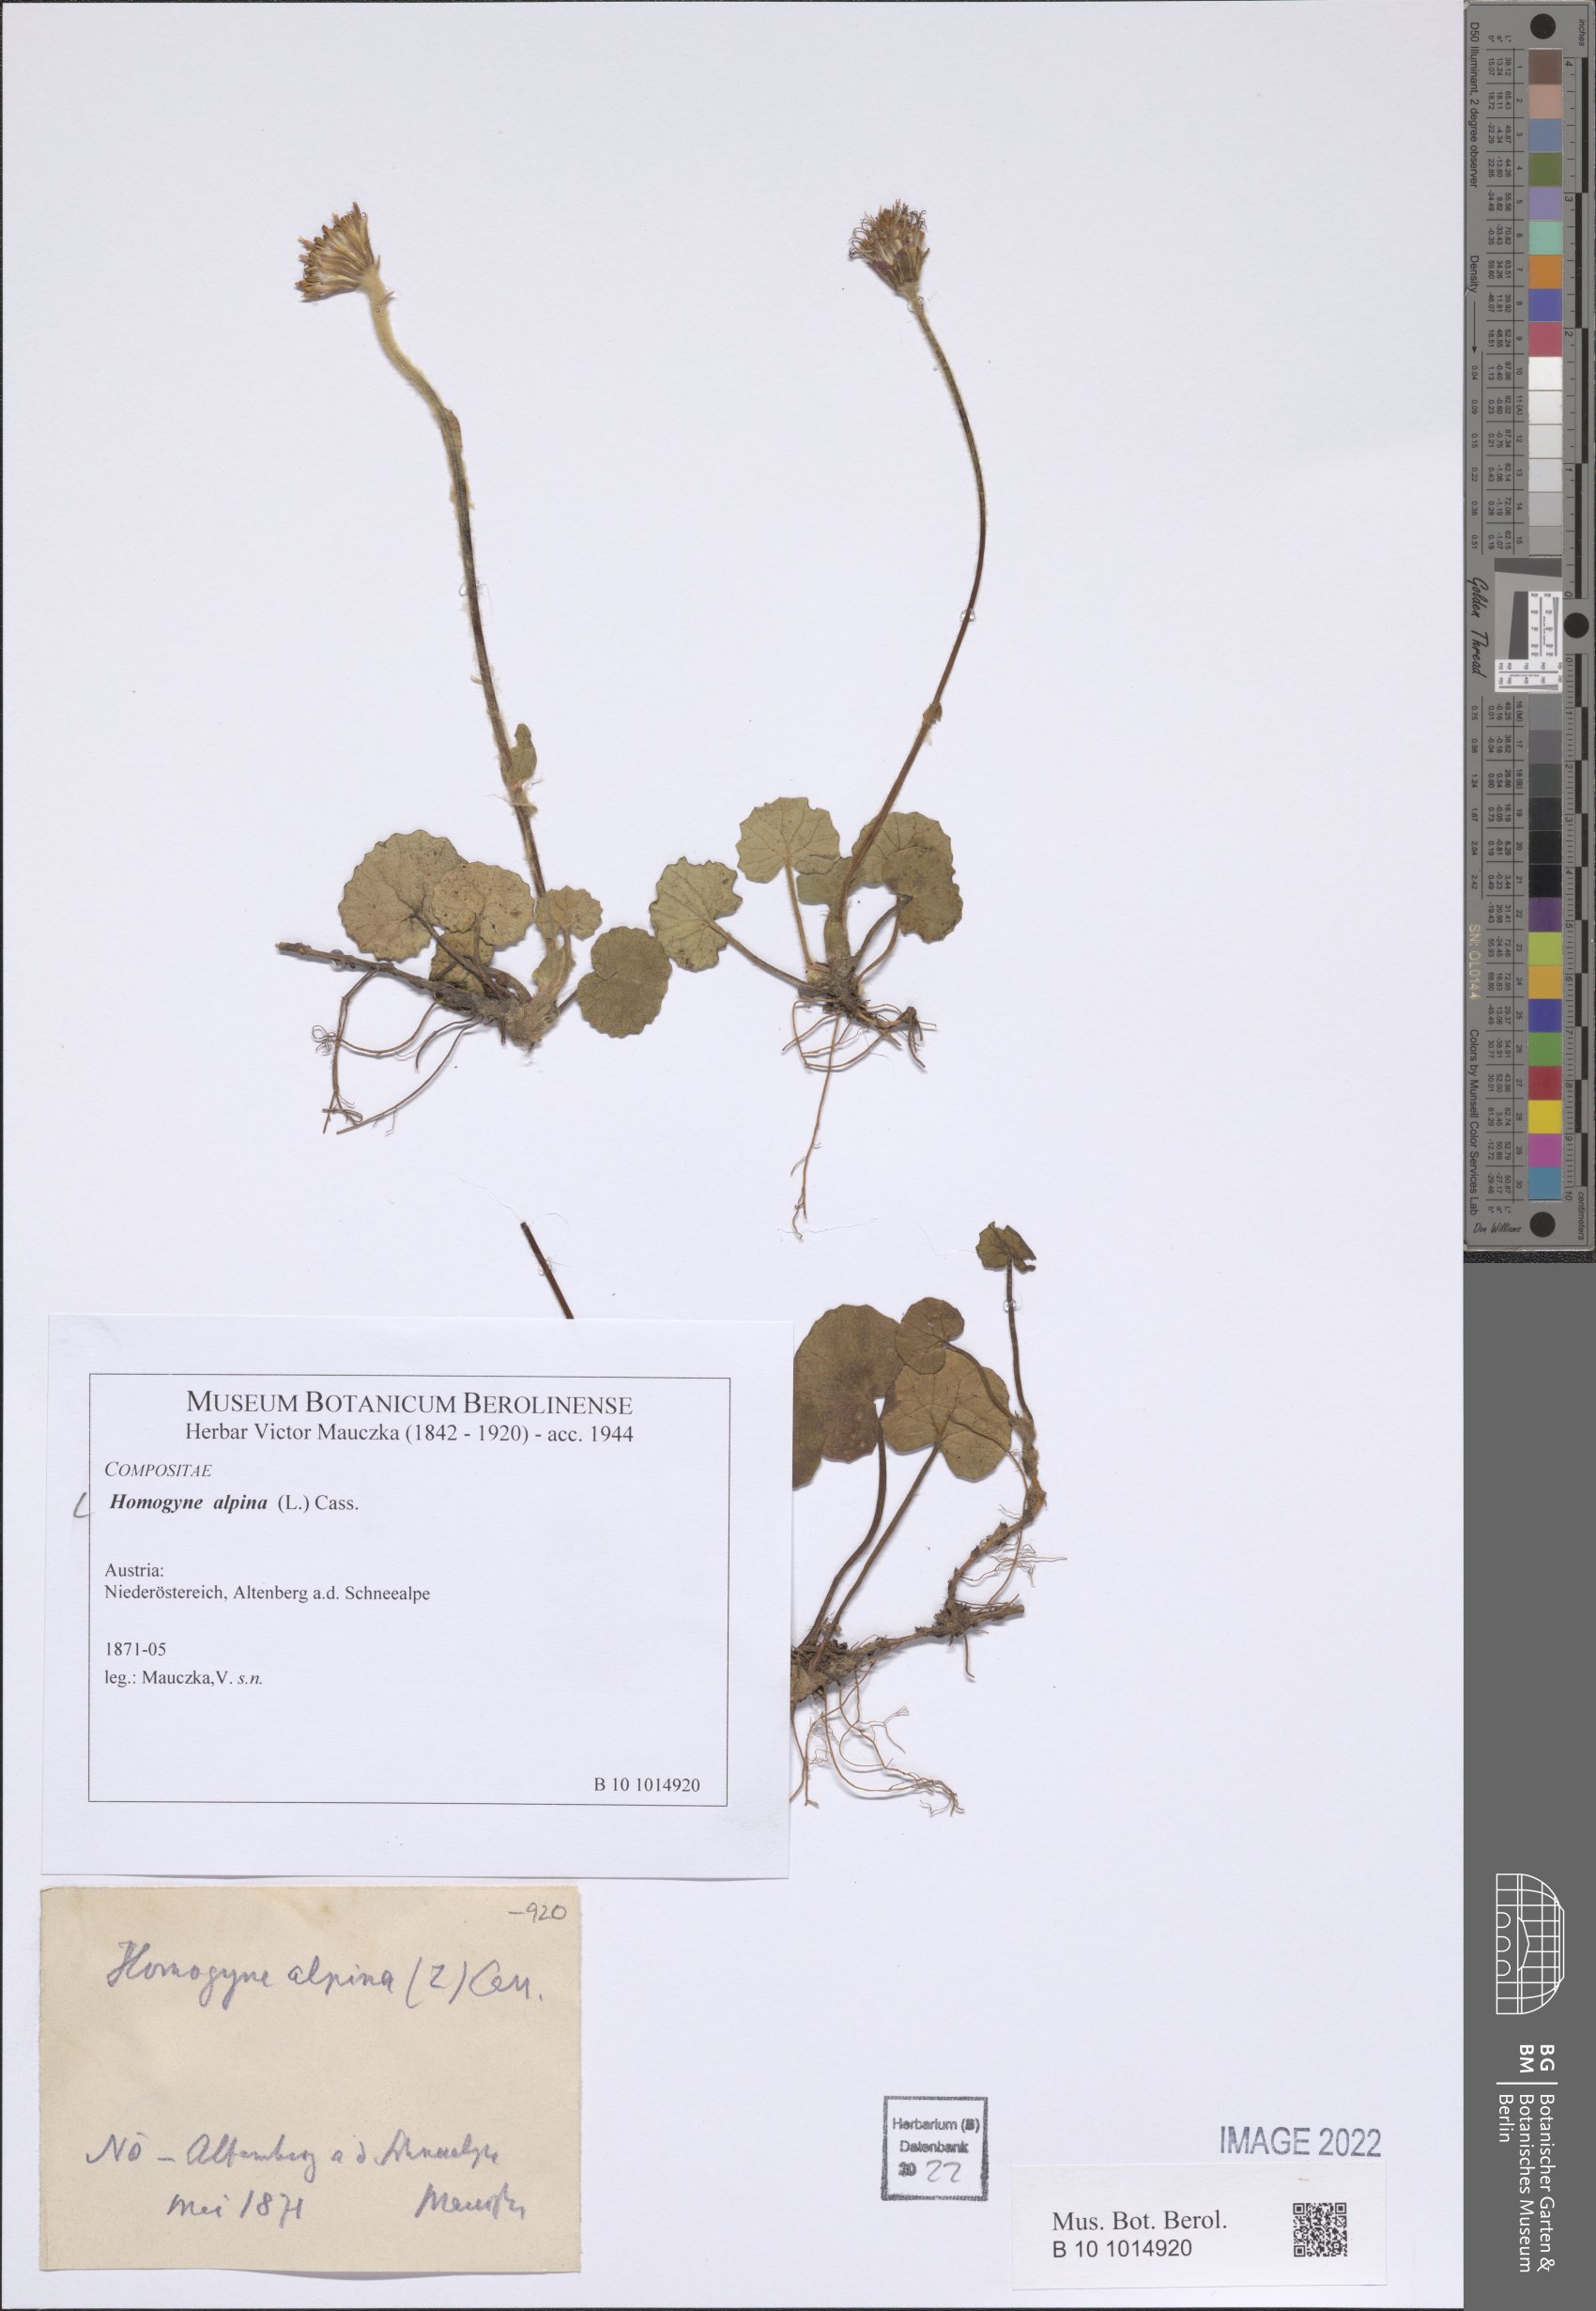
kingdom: Plantae
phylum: Tracheophyta
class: Magnoliopsida
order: Asterales
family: Asteraceae
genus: Homogyne
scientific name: Homogyne alpina
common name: Purple colt's-foot
